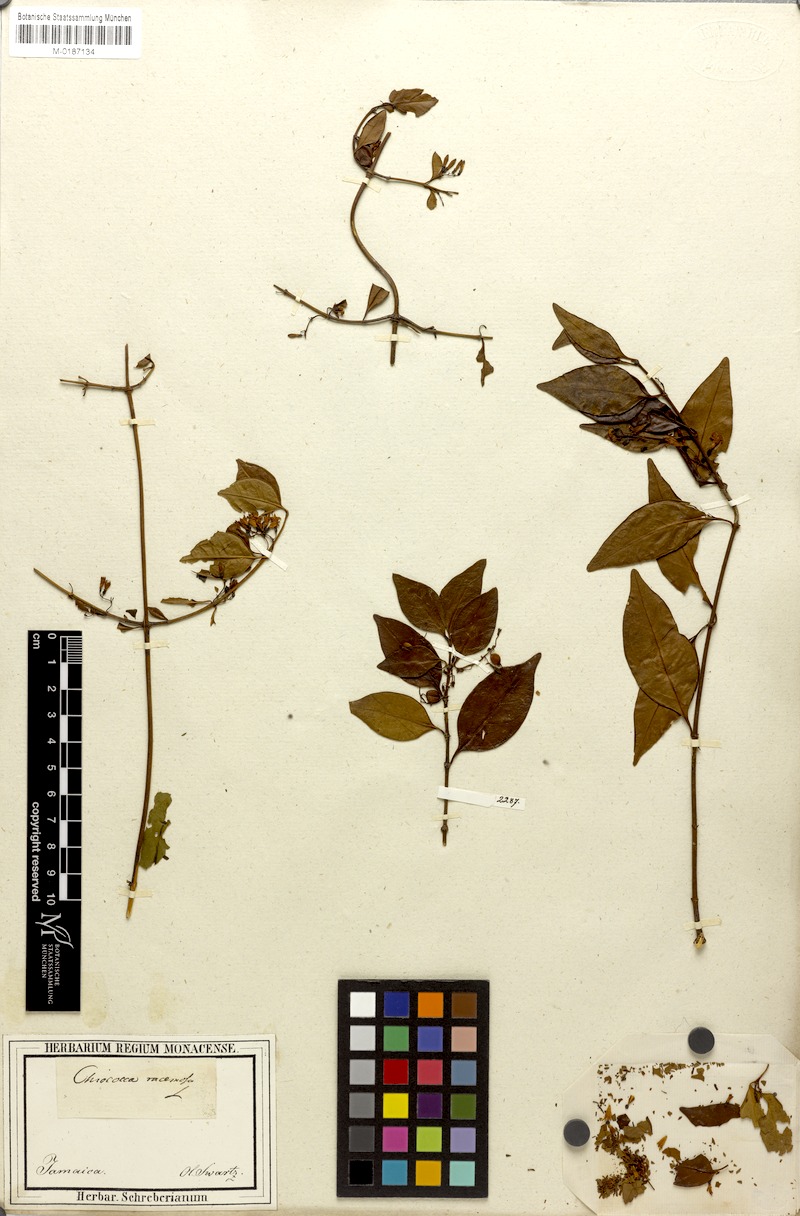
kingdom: Plantae
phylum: Tracheophyta
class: Magnoliopsida
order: Gentianales
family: Rubiaceae
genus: Chiococca
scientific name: Chiococca alba
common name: Snowberry
